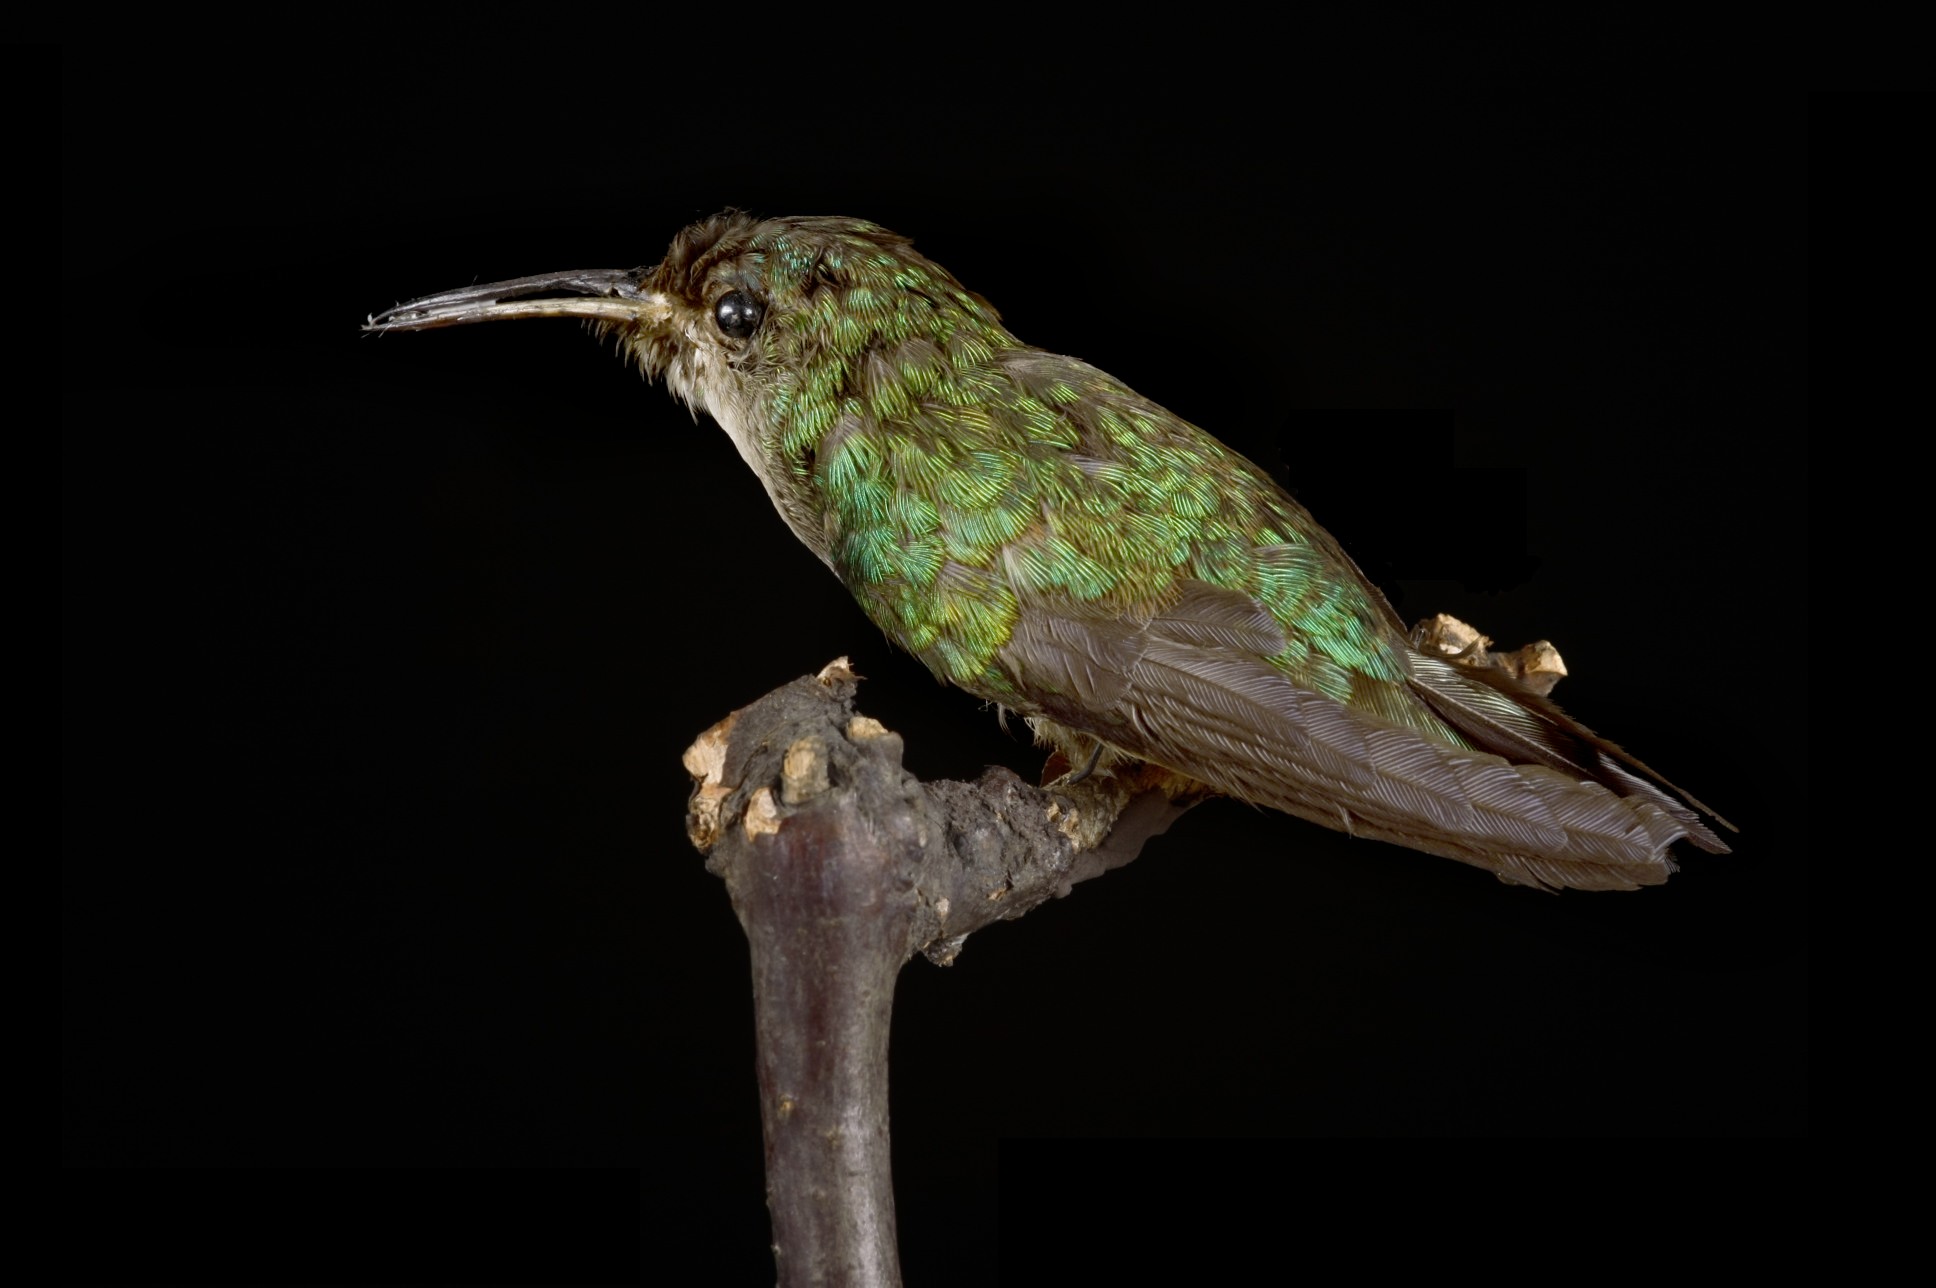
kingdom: Animalia
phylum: Chordata
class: Aves
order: Apodiformes
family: Trochilidae
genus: Agyrtria
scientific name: Agyrtria
